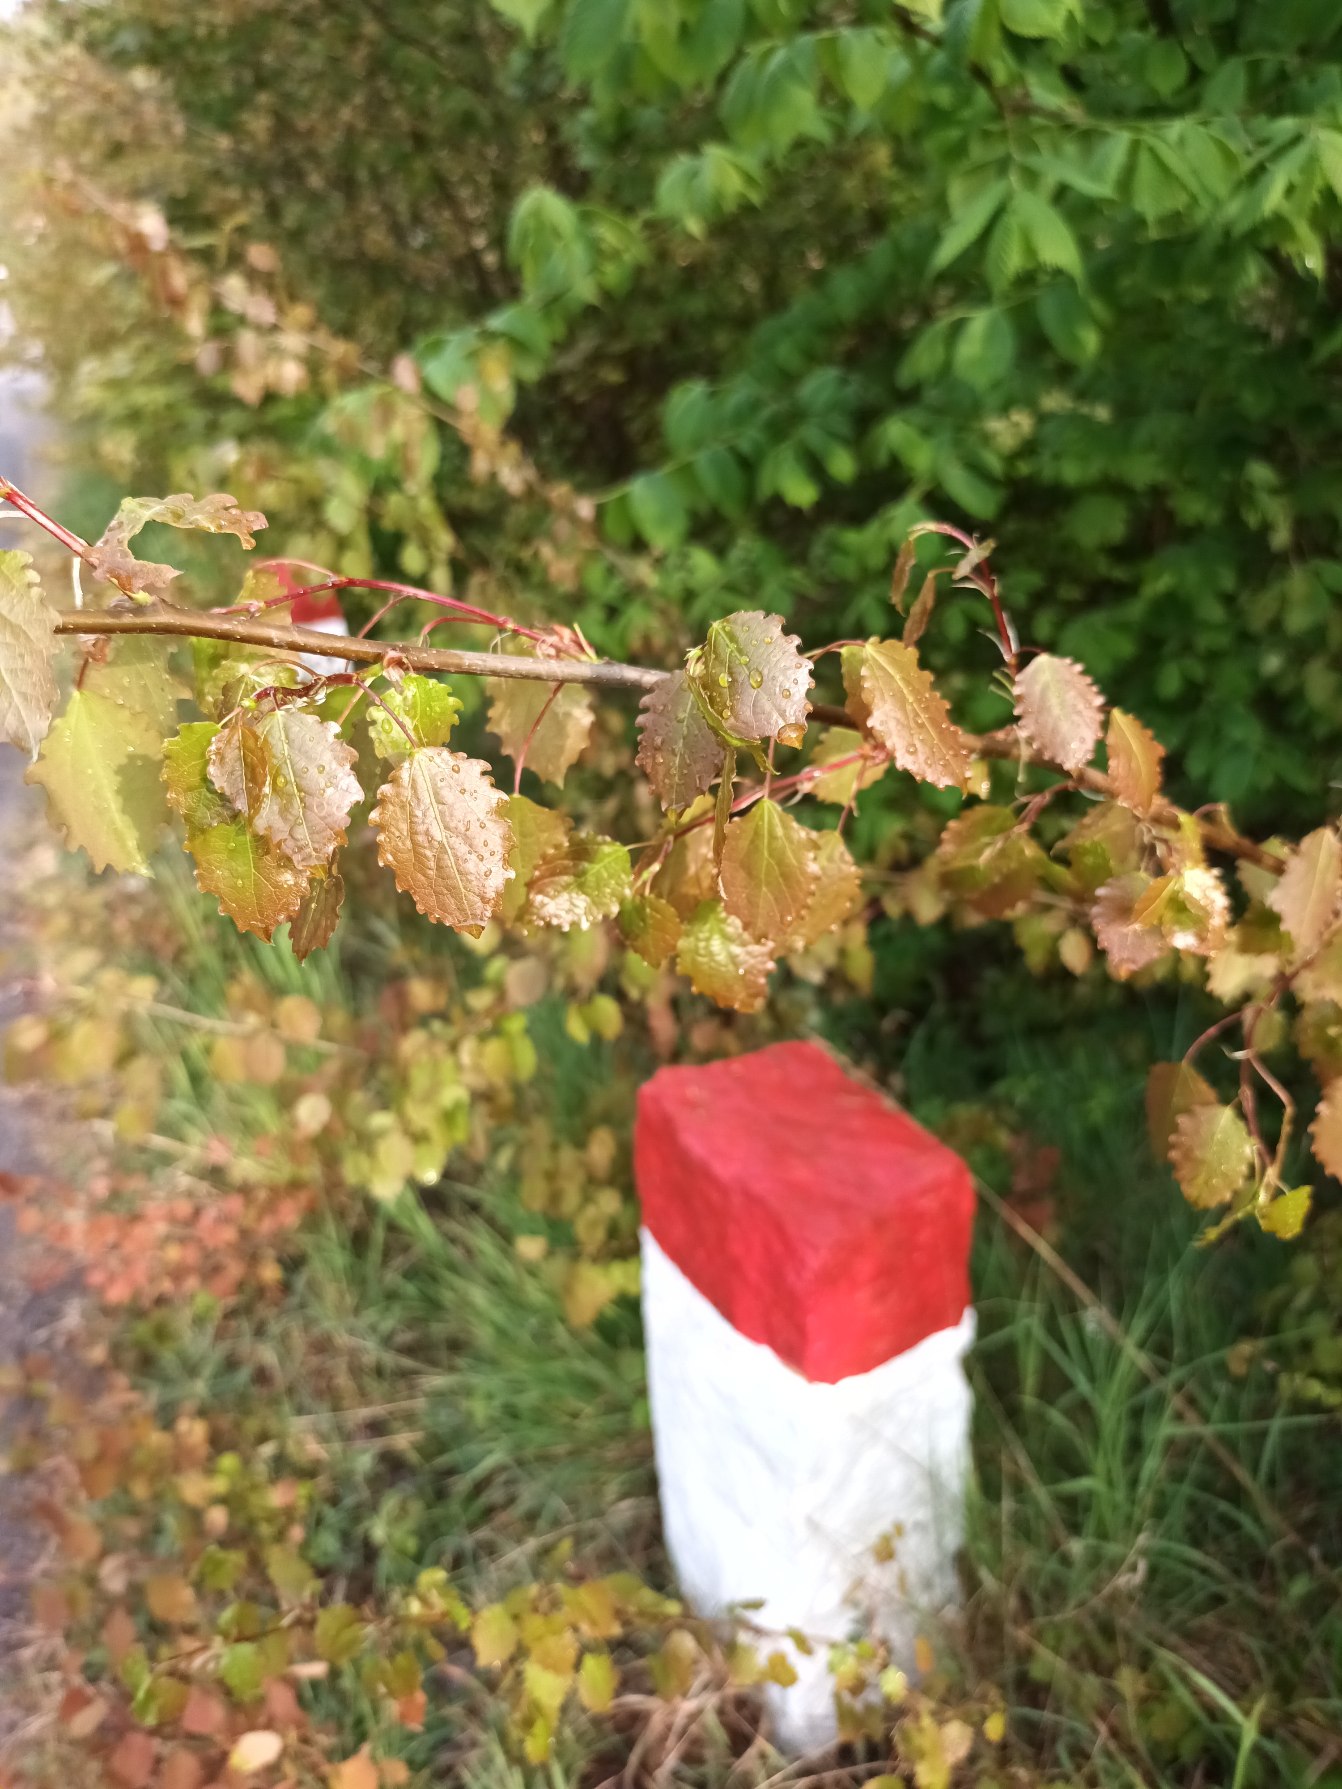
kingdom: Plantae
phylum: Tracheophyta
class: Magnoliopsida
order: Malpighiales
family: Salicaceae
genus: Populus
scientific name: Populus tremula
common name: Bævreasp
